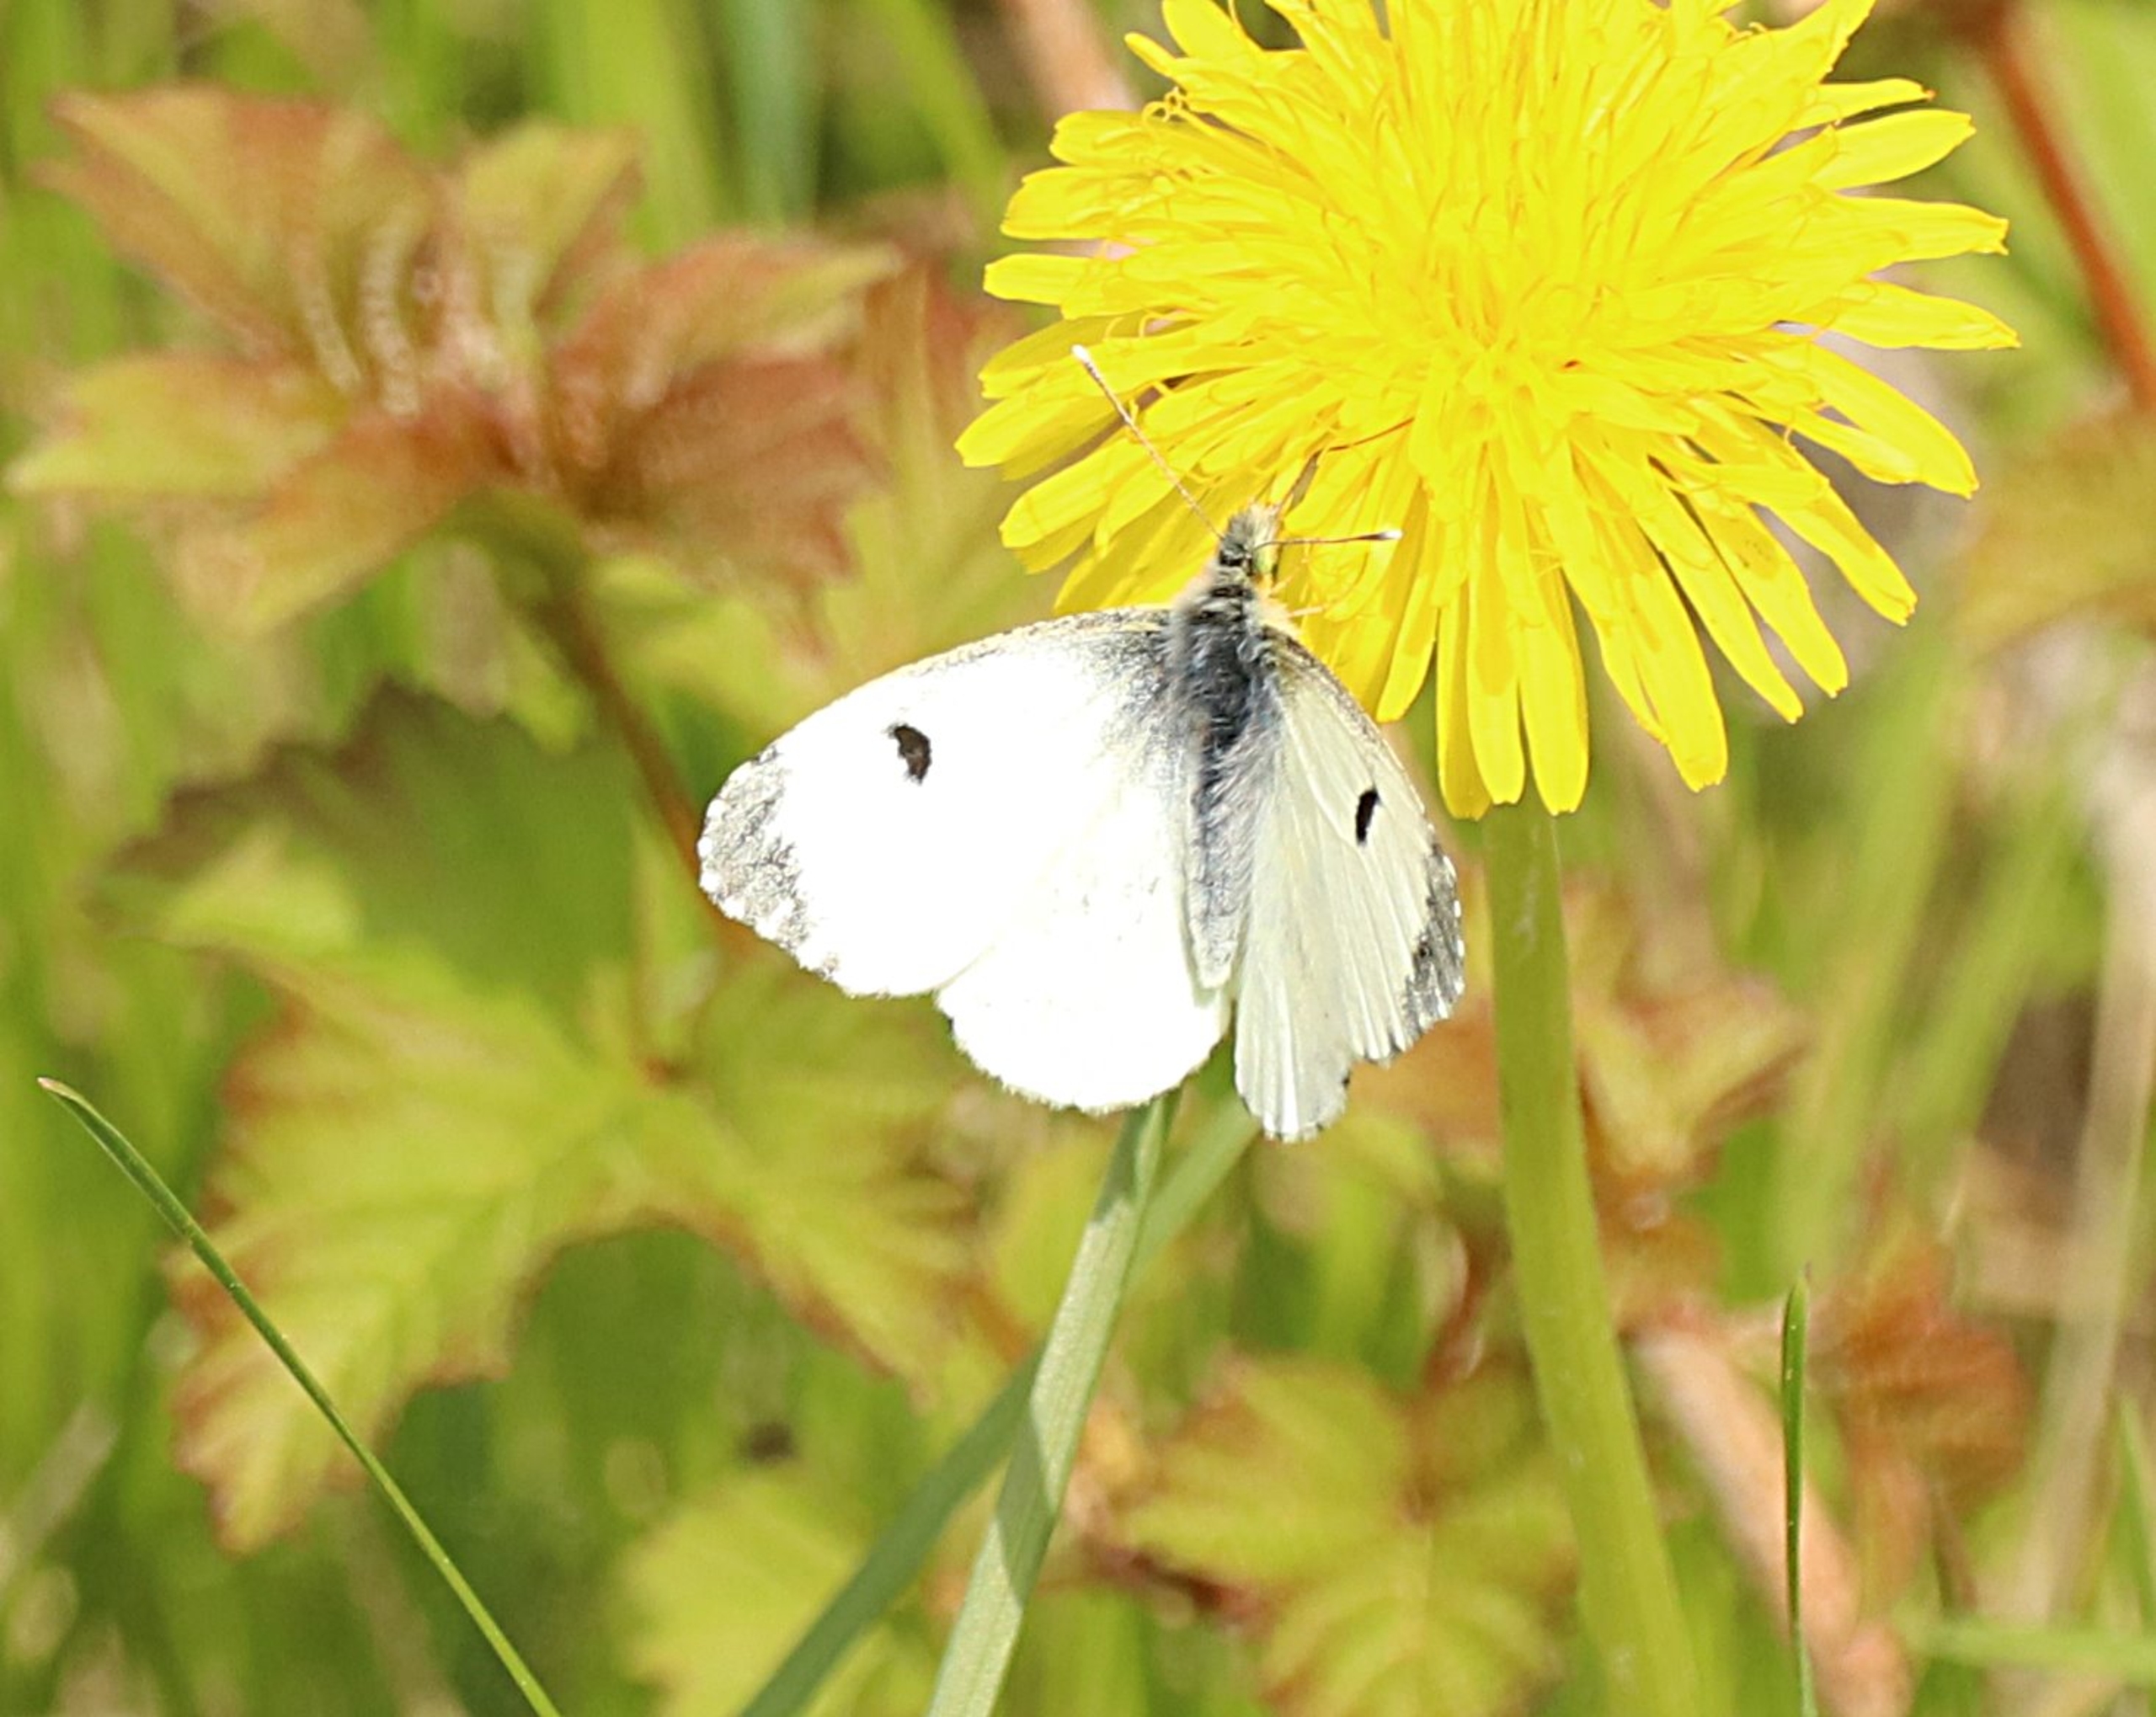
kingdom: Animalia
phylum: Arthropoda
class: Insecta
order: Lepidoptera
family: Pieridae
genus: Anthocharis
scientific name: Anthocharis cardamines
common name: Aurora
